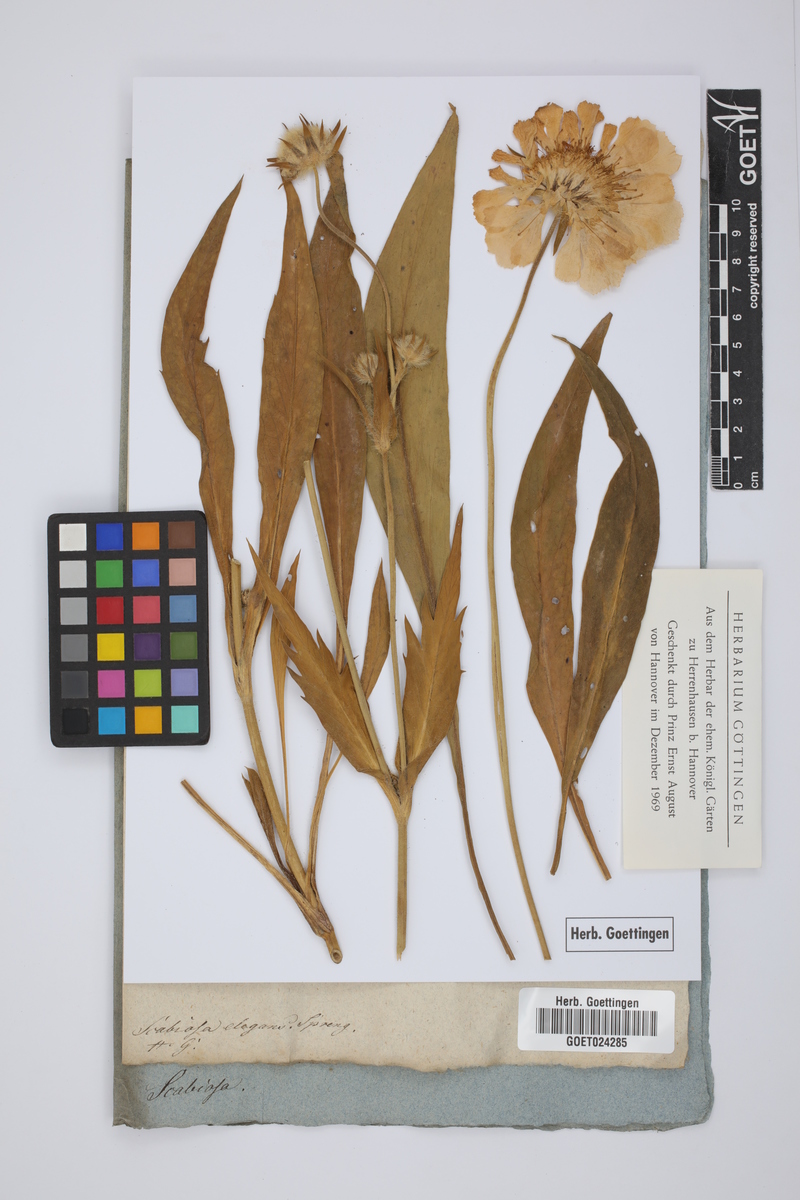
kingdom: Plantae
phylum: Tracheophyta
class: Magnoliopsida
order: Dipsacales
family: Caprifoliaceae
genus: Lomelosia
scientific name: Lomelosia caucasica
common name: Pincushion-flower
